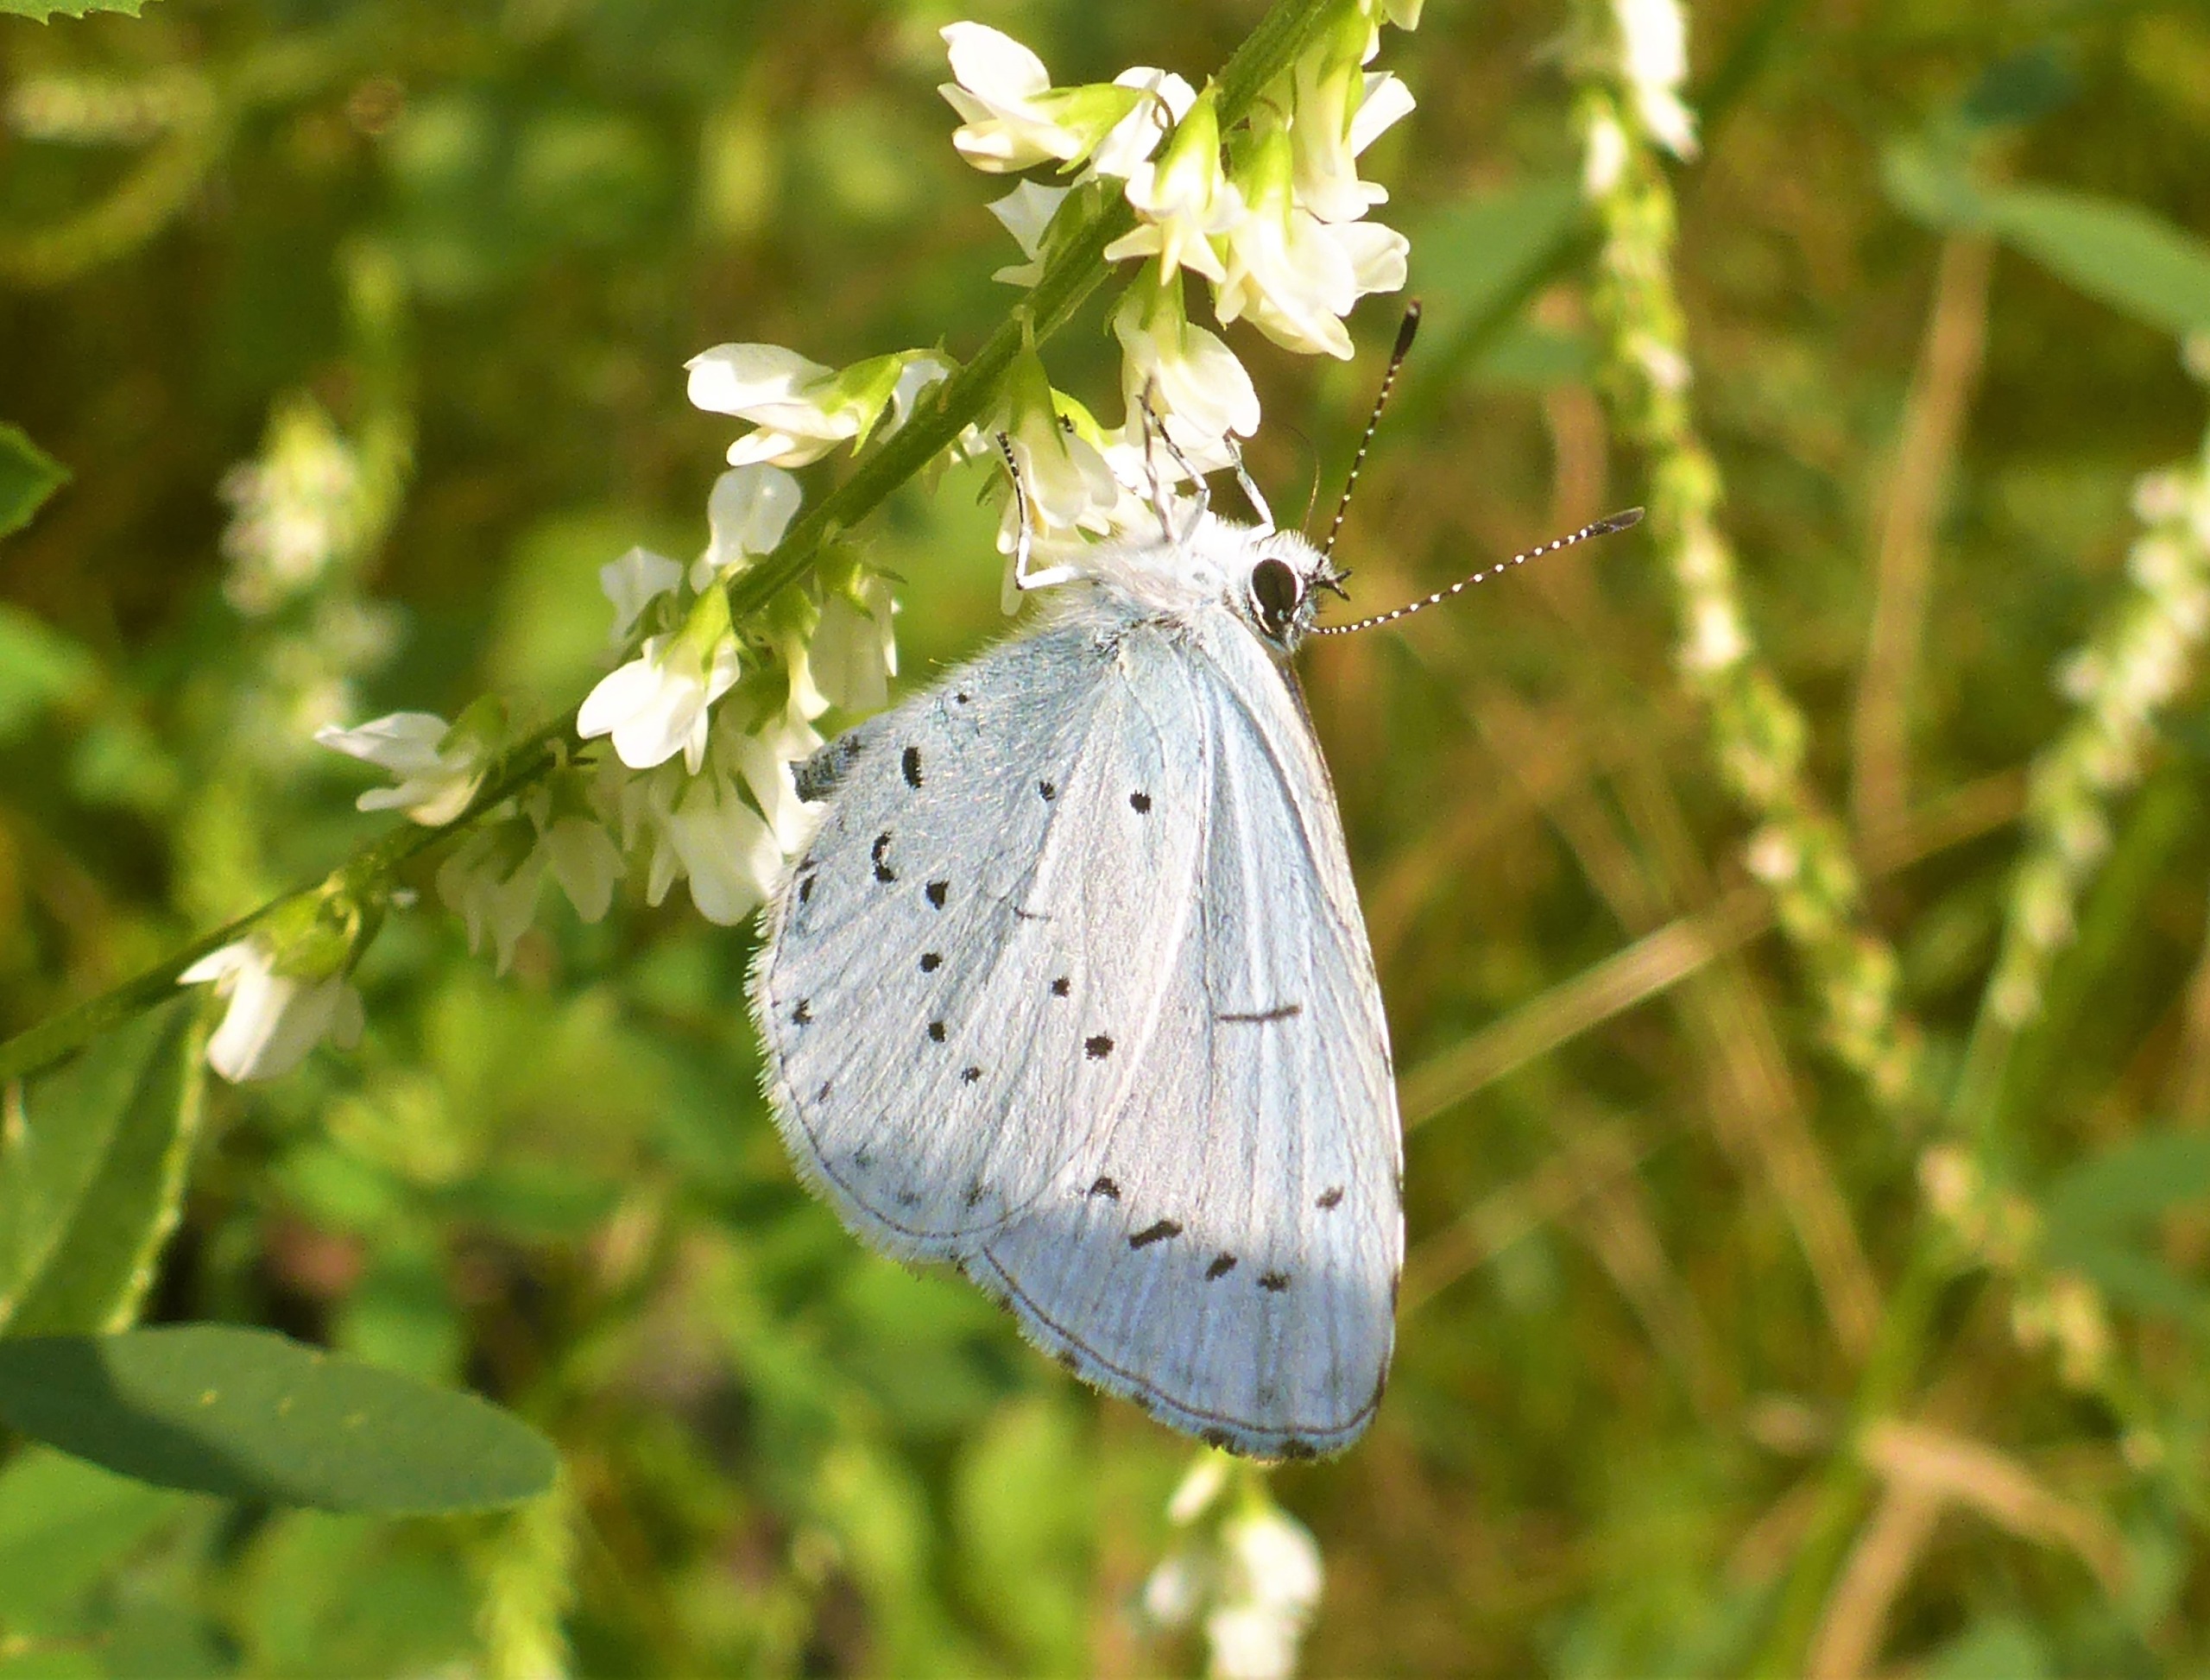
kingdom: Animalia
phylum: Arthropoda
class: Insecta
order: Lepidoptera
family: Lycaenidae
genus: Celastrina
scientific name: Celastrina argiolus
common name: Skovblåfugl
